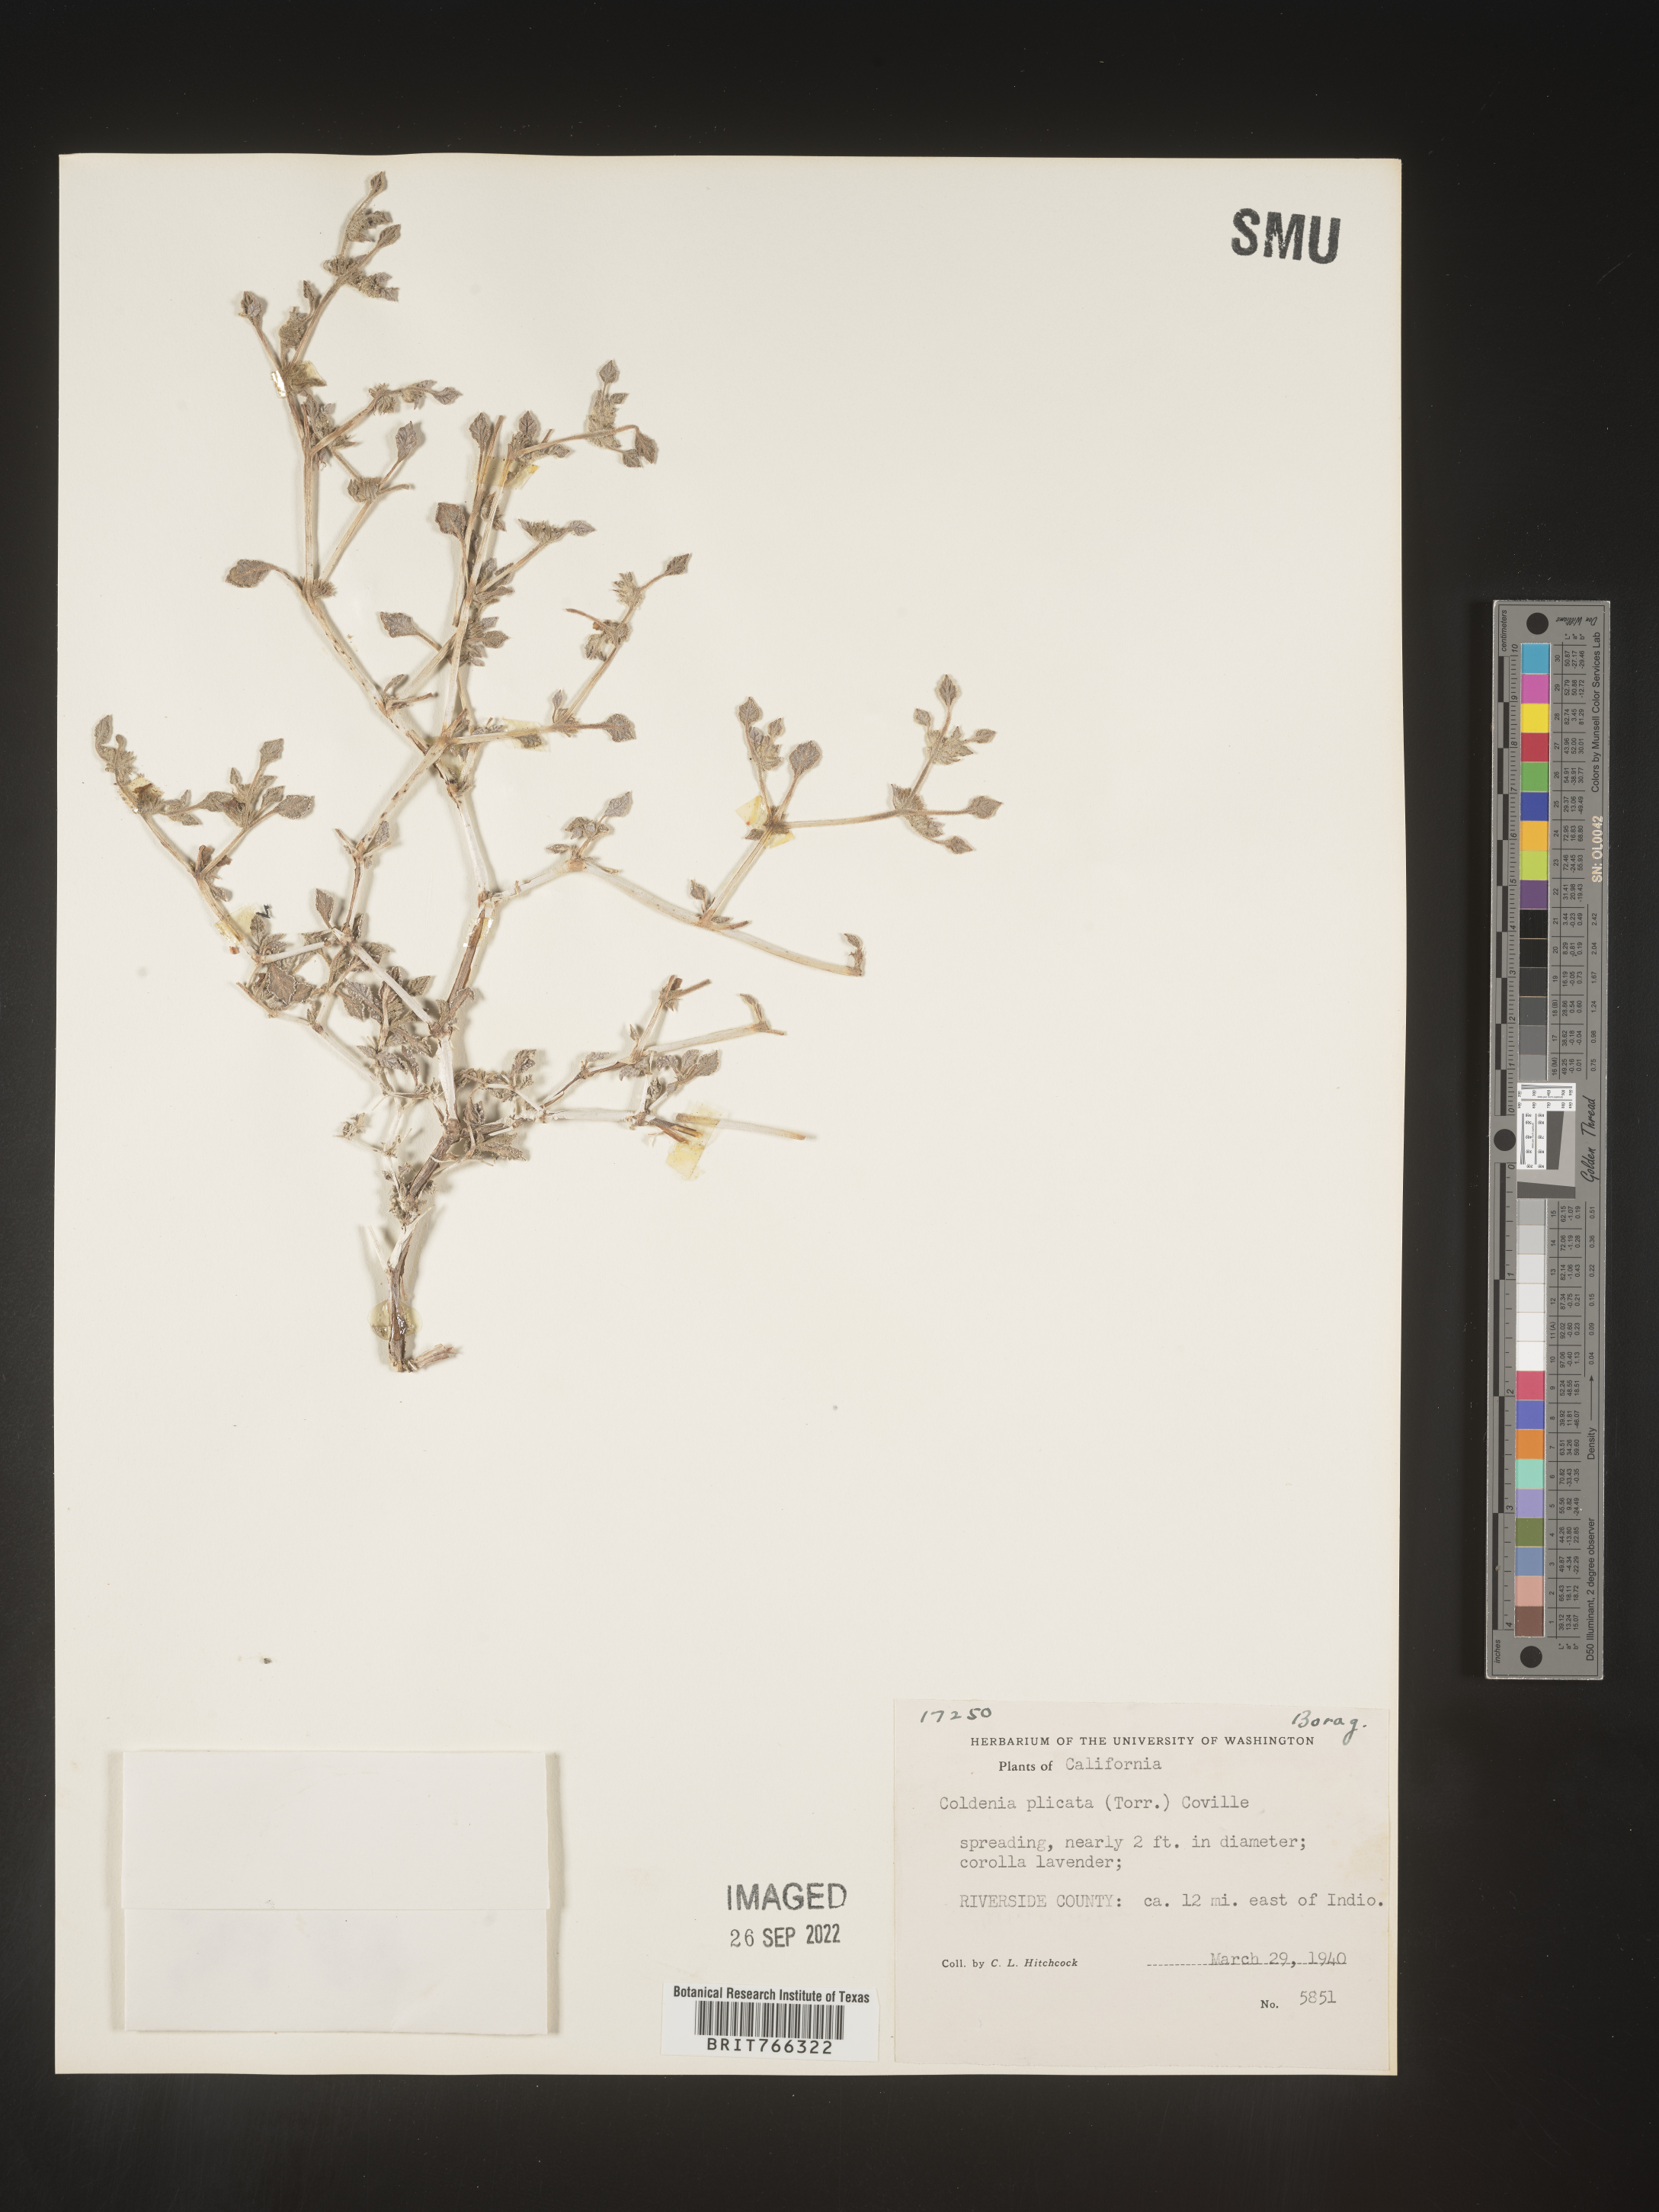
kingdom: Plantae
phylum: Tracheophyta
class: Magnoliopsida
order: Boraginales
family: Coldeniaceae
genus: Coldenia
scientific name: Coldenia
